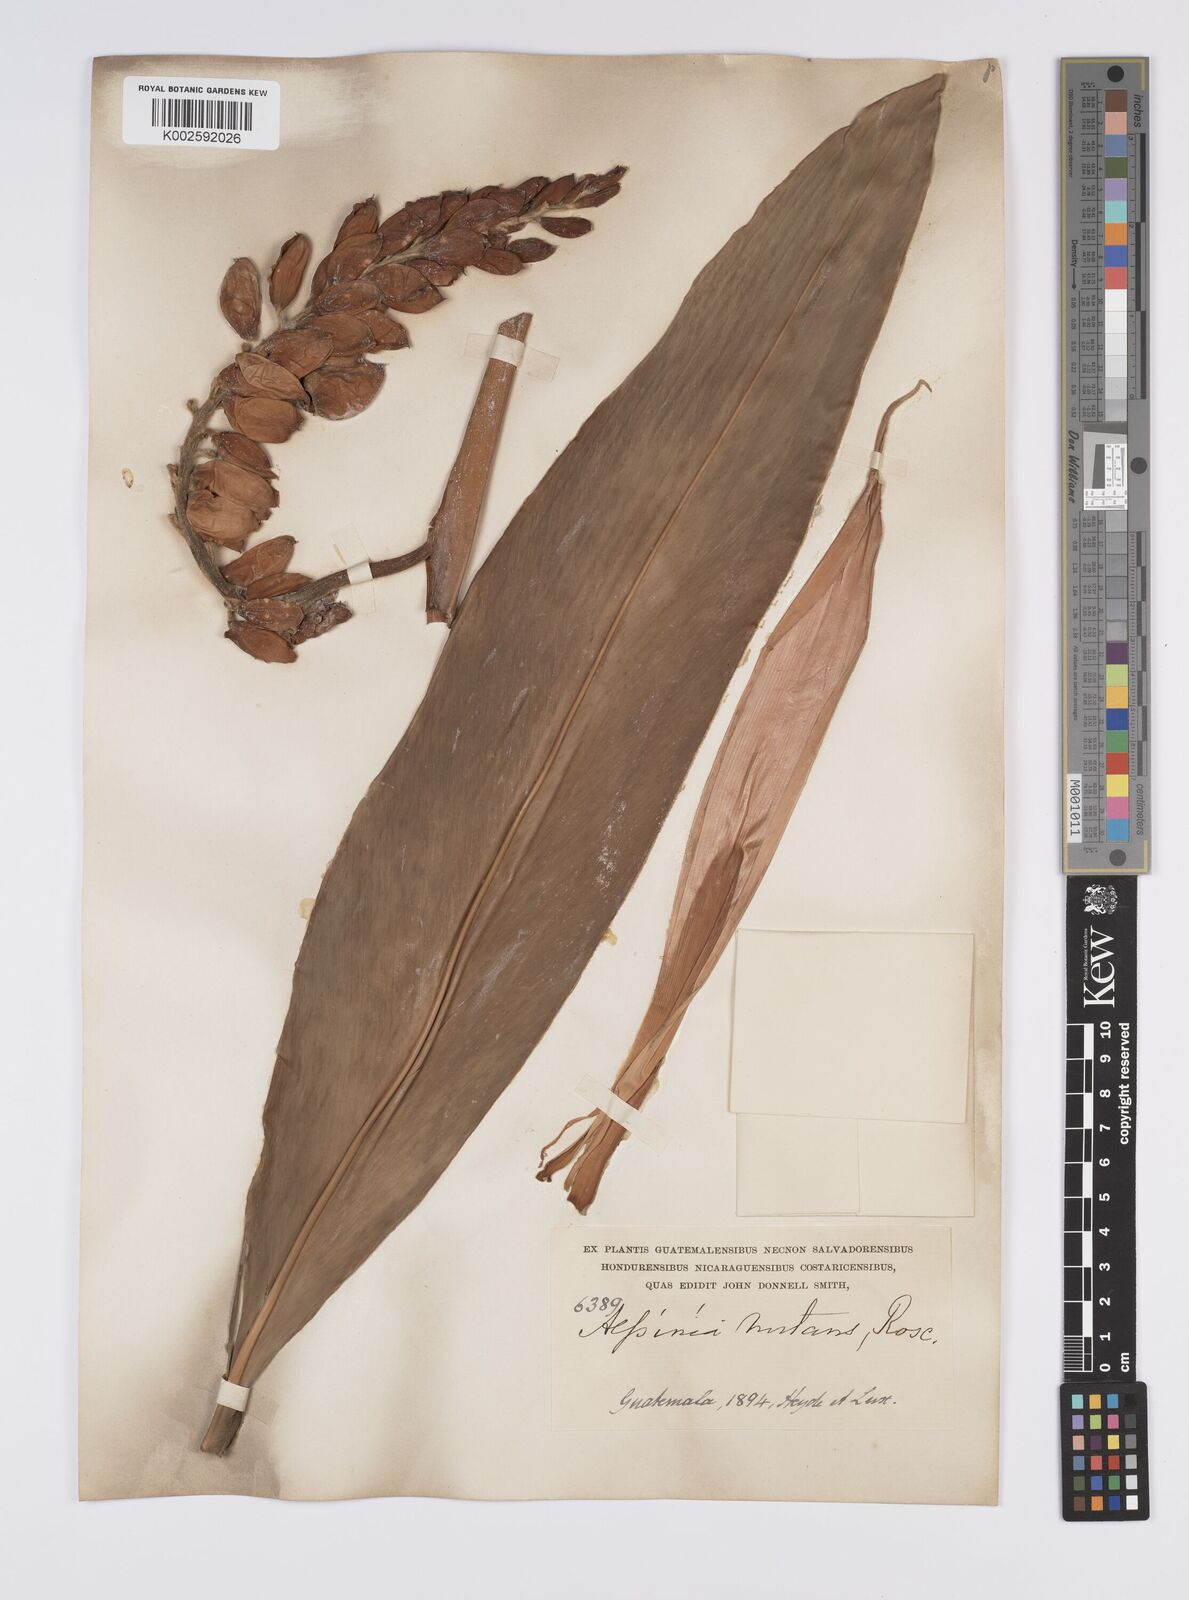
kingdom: Plantae
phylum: Tracheophyta
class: Liliopsida
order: Zingiberales
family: Zingiberaceae
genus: Alpinia
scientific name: Alpinia zerumbet
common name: Shellplant
